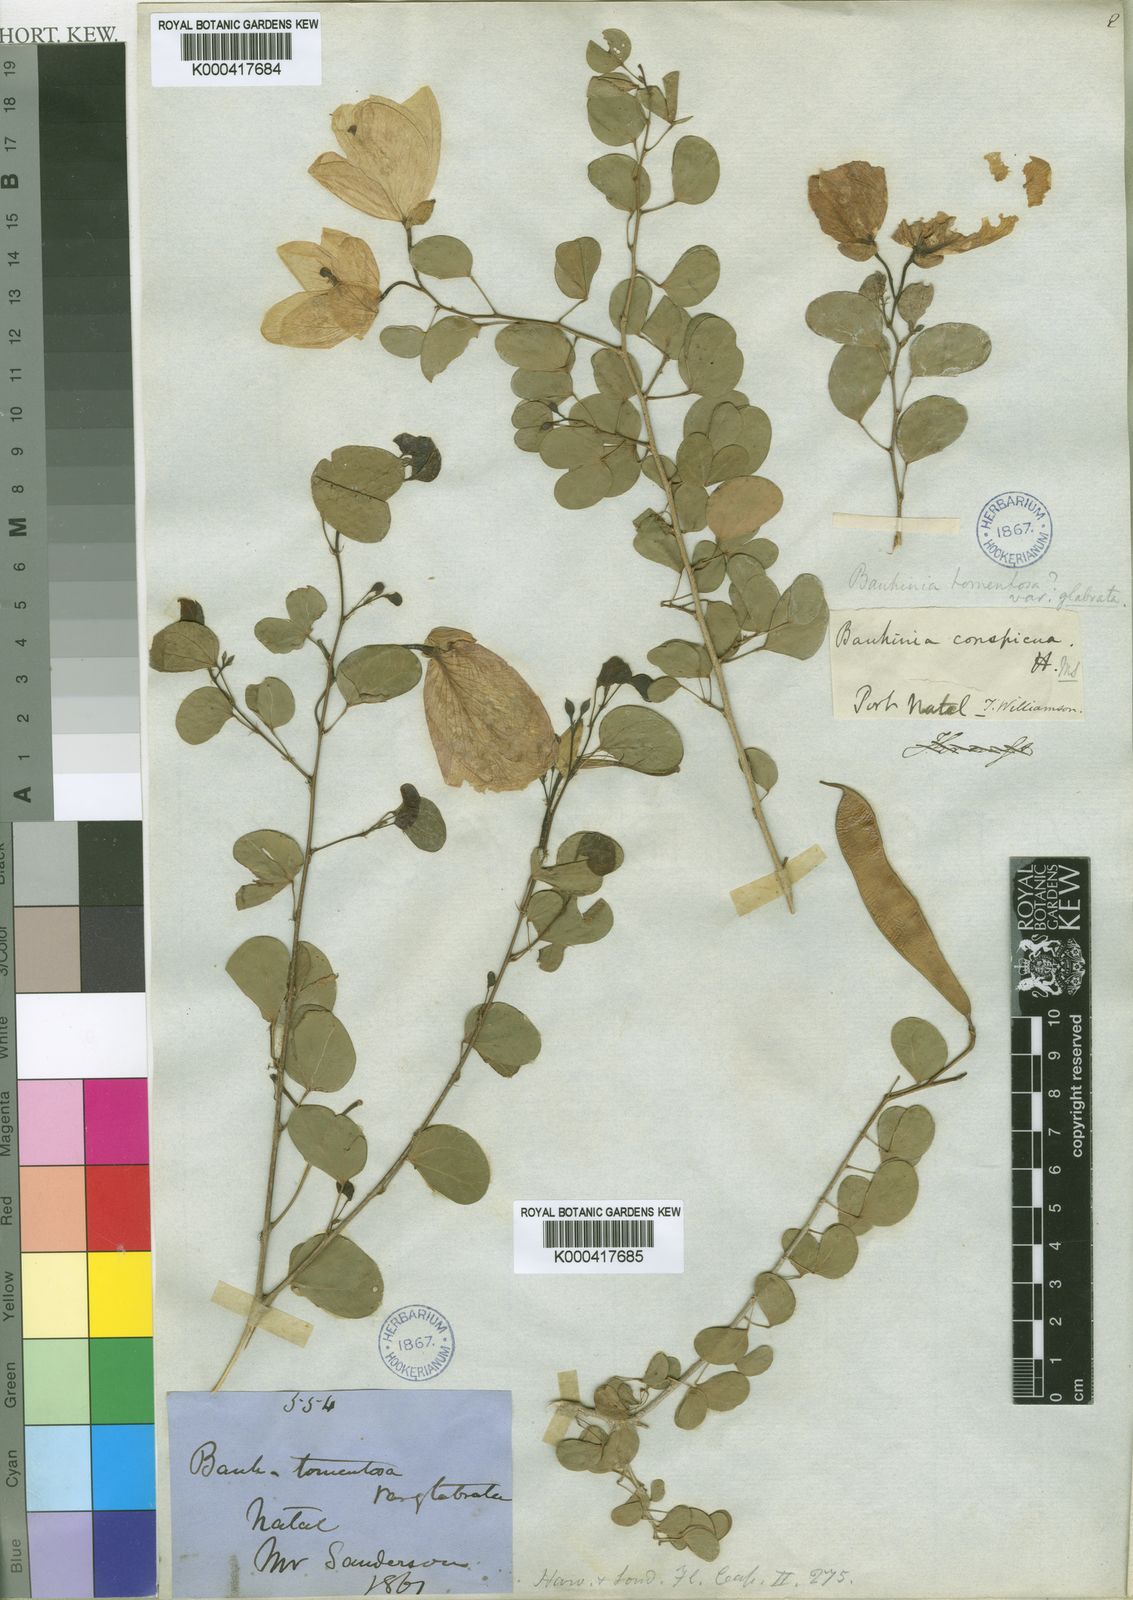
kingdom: Plantae
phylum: Tracheophyta
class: Magnoliopsida
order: Fabales
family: Fabaceae
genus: Bauhinia
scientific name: Bauhinia tomentosa
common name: Bell bauhinia
